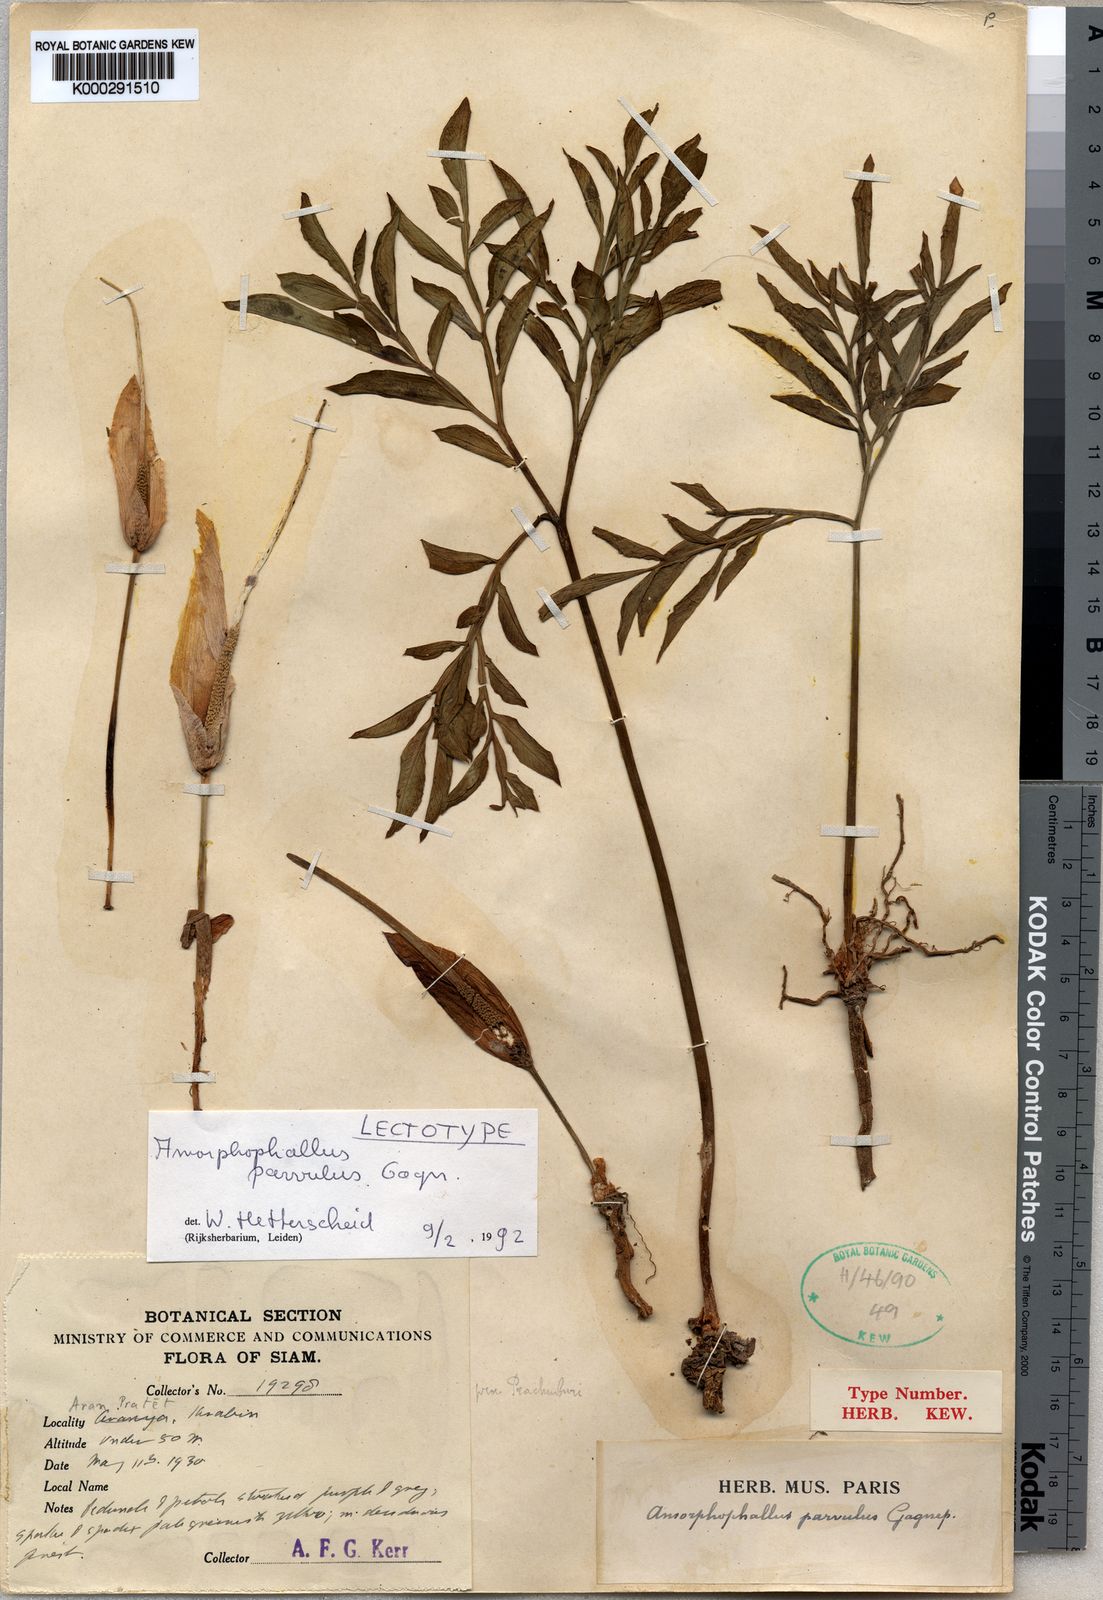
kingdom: Plantae
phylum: Tracheophyta
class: Liliopsida
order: Alismatales
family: Araceae
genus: Amorphophallus
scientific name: Amorphophallus harmandii
